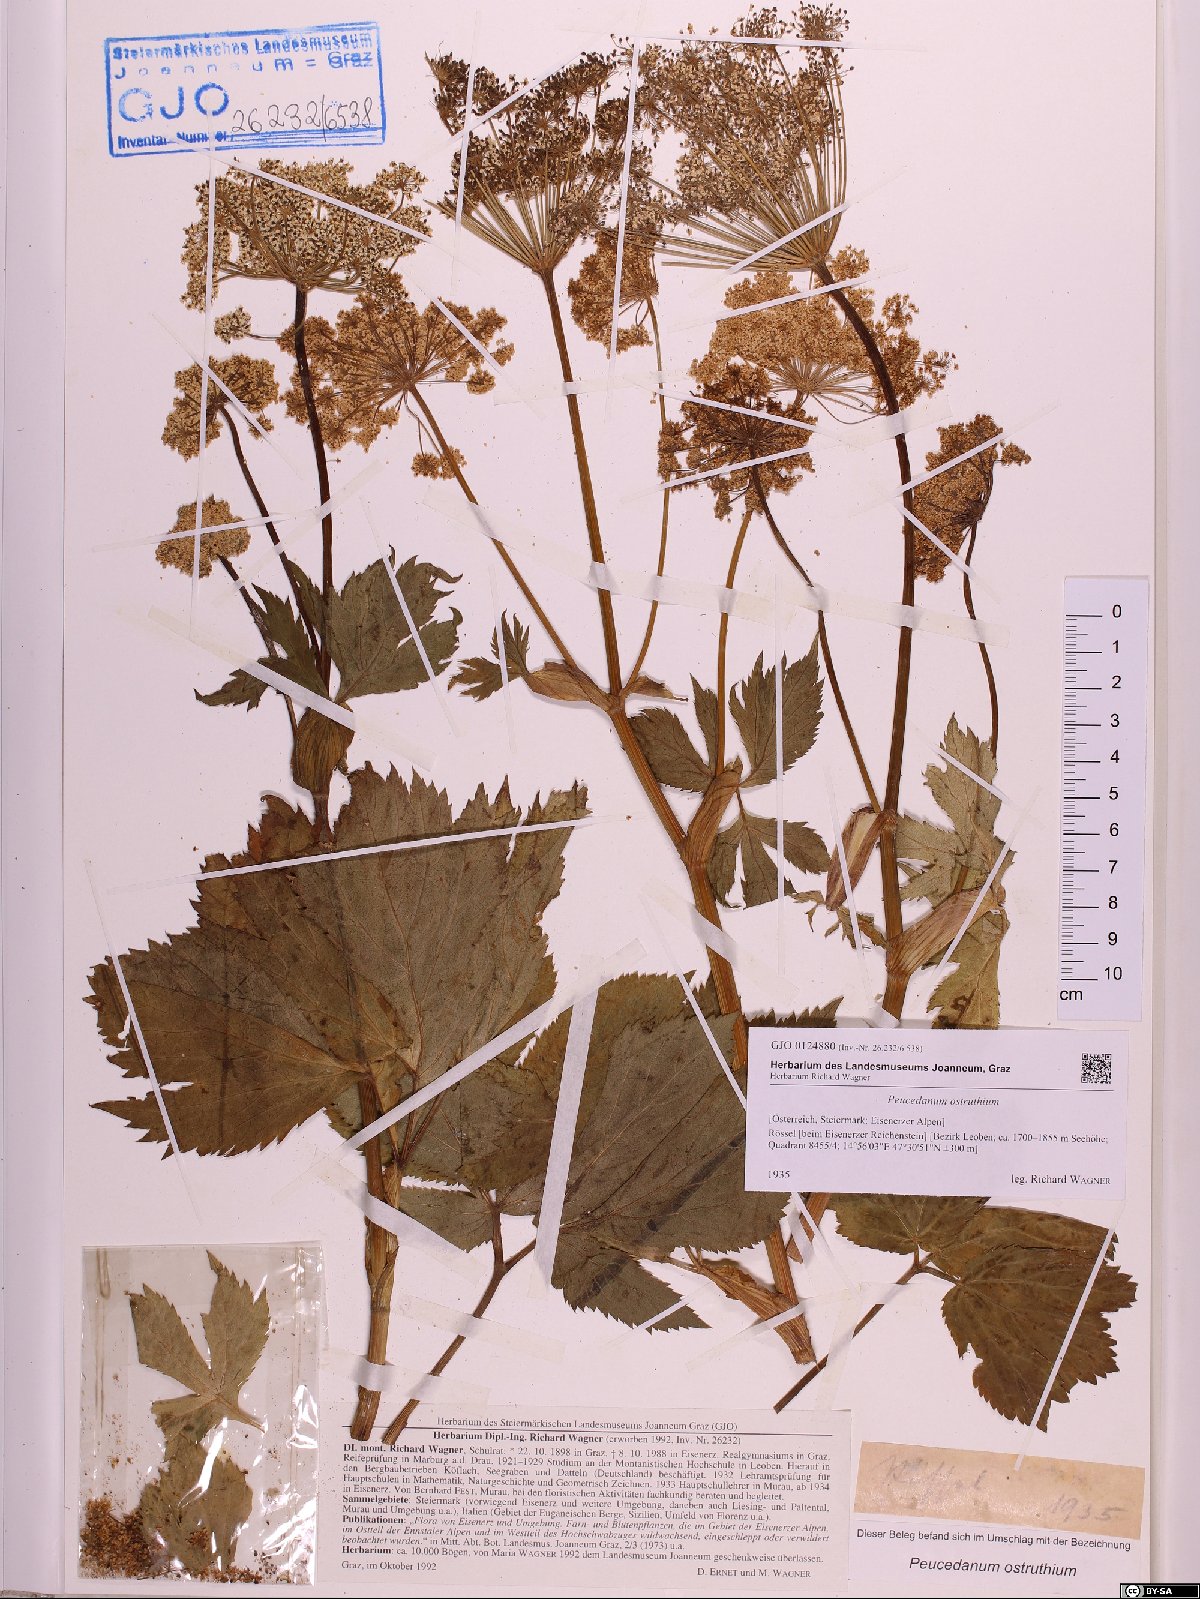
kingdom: Plantae
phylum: Tracheophyta
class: Magnoliopsida
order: Apiales
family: Apiaceae
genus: Imperatoria
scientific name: Imperatoria ostruthium
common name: Masterwort
